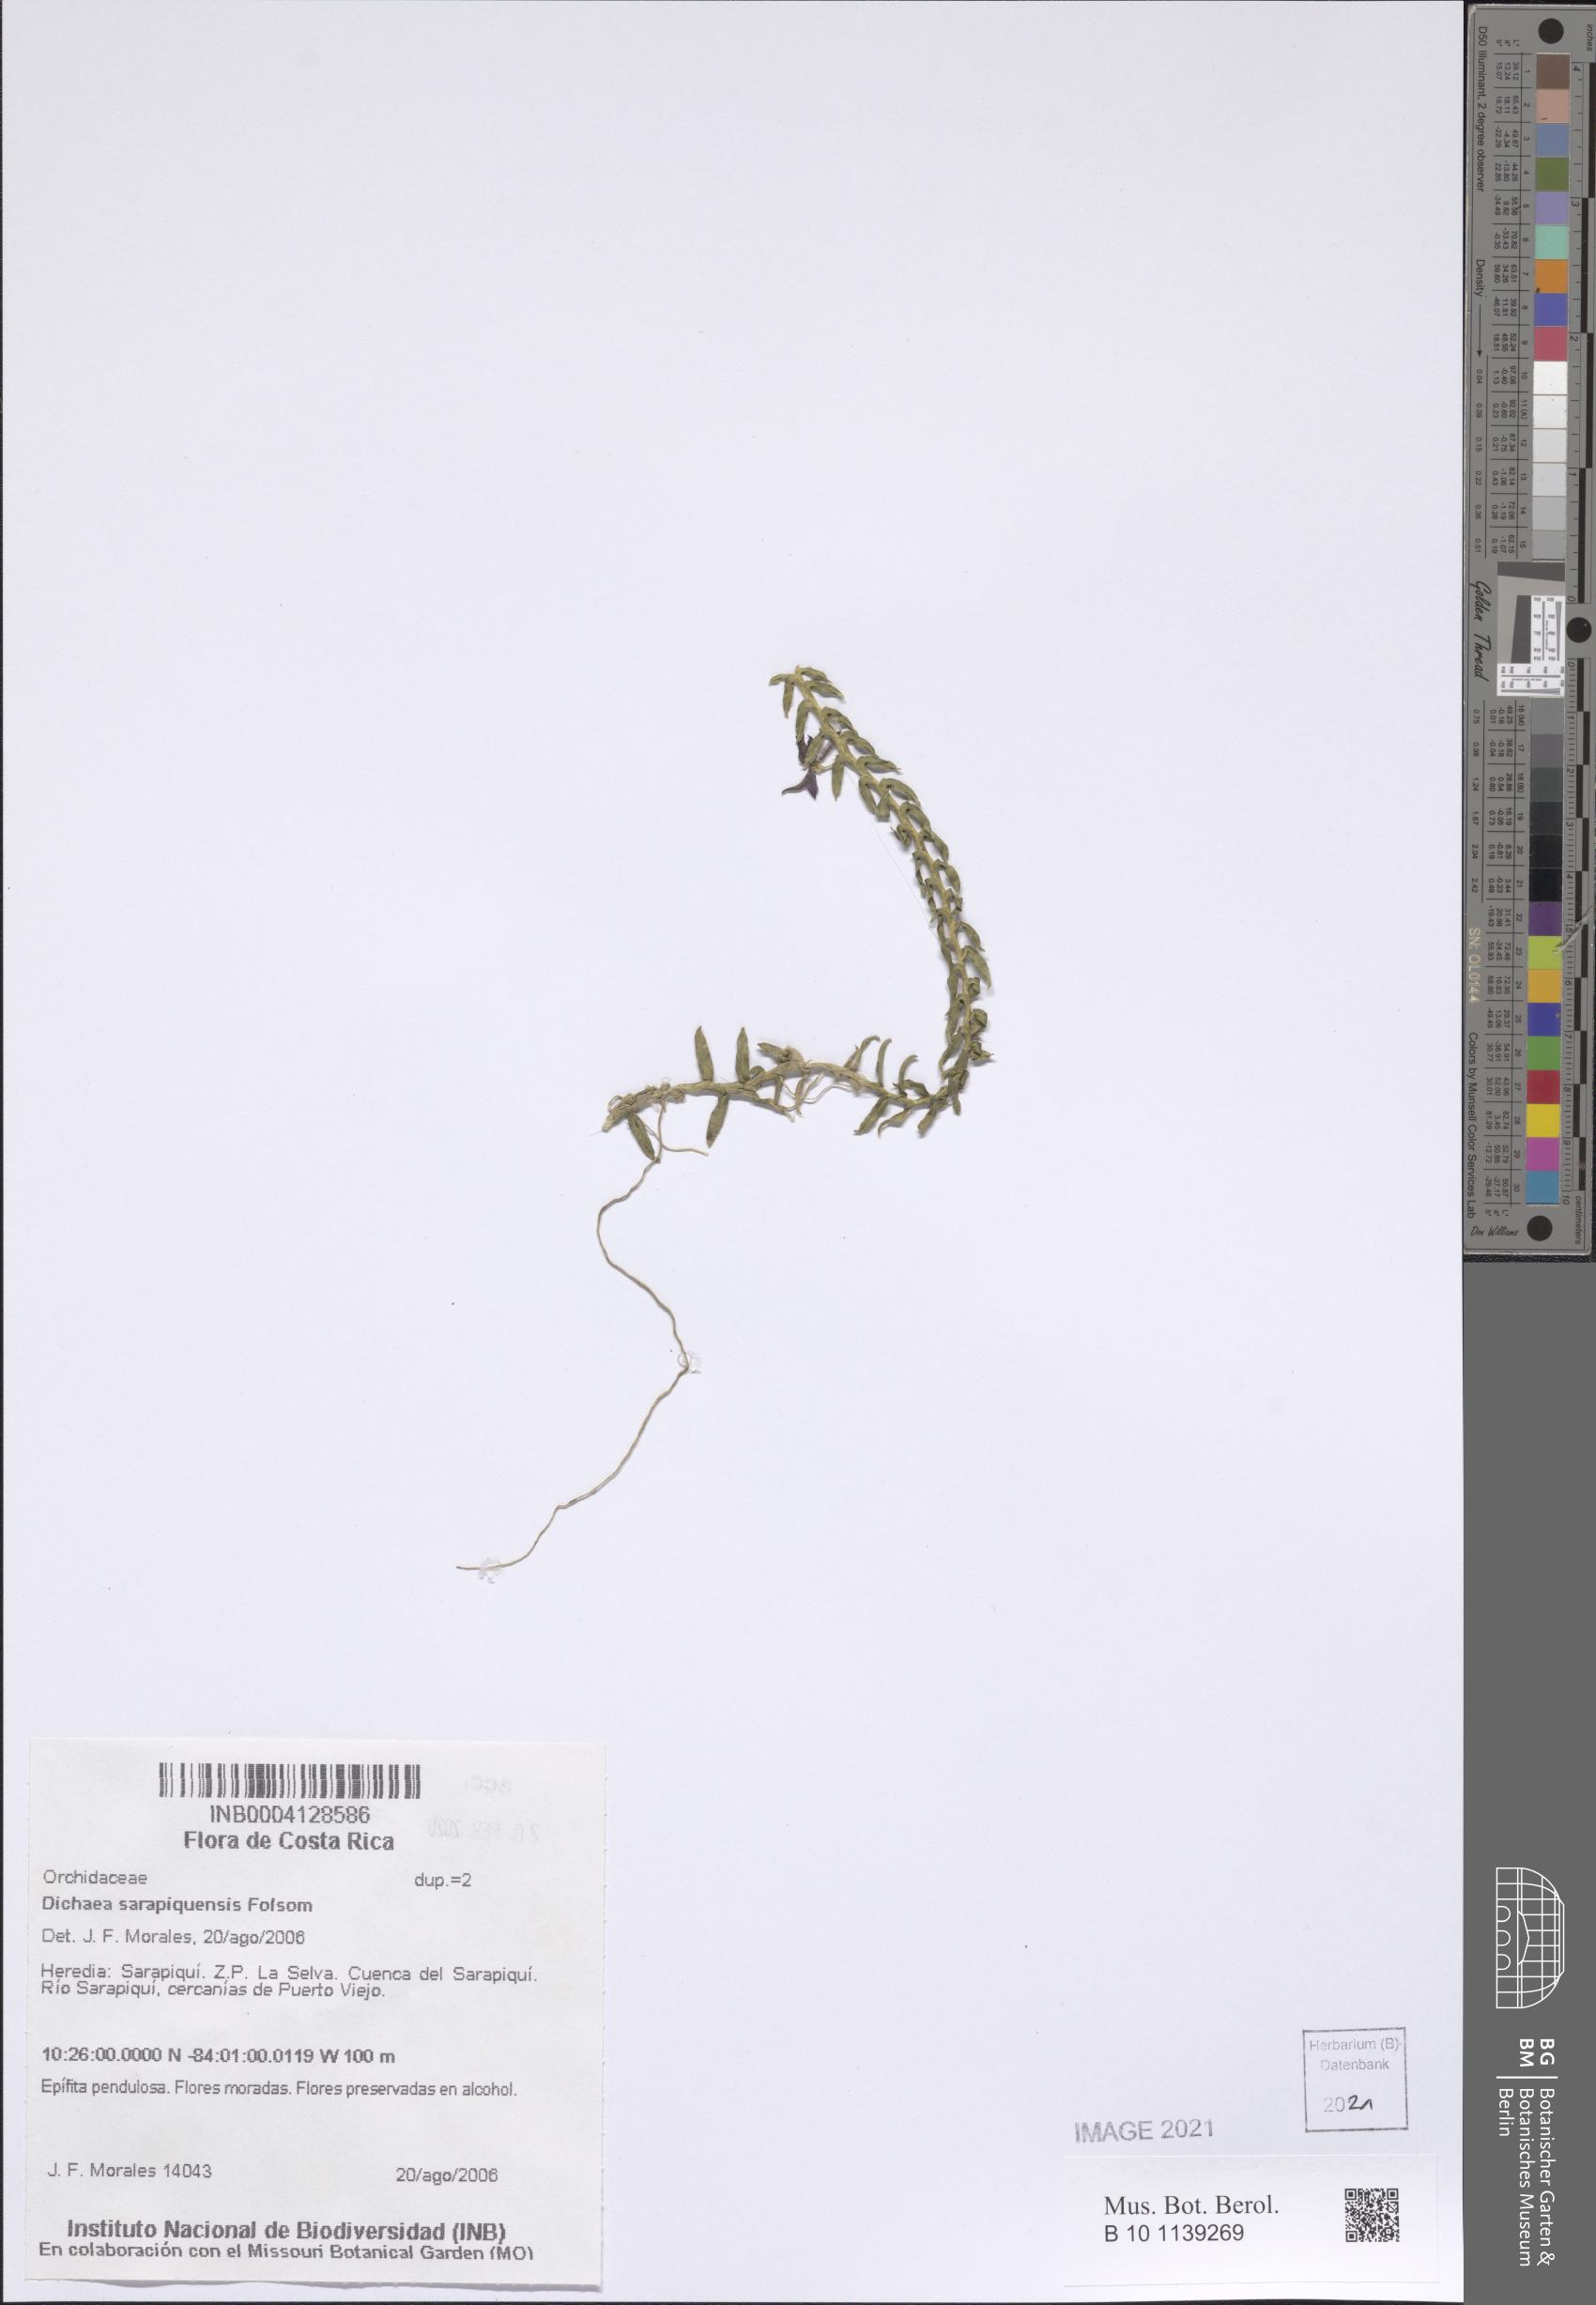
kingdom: Plantae
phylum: Tracheophyta
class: Liliopsida
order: Asparagales
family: Orchidaceae
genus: Dichaea
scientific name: Dichaea sarapiquinsis
